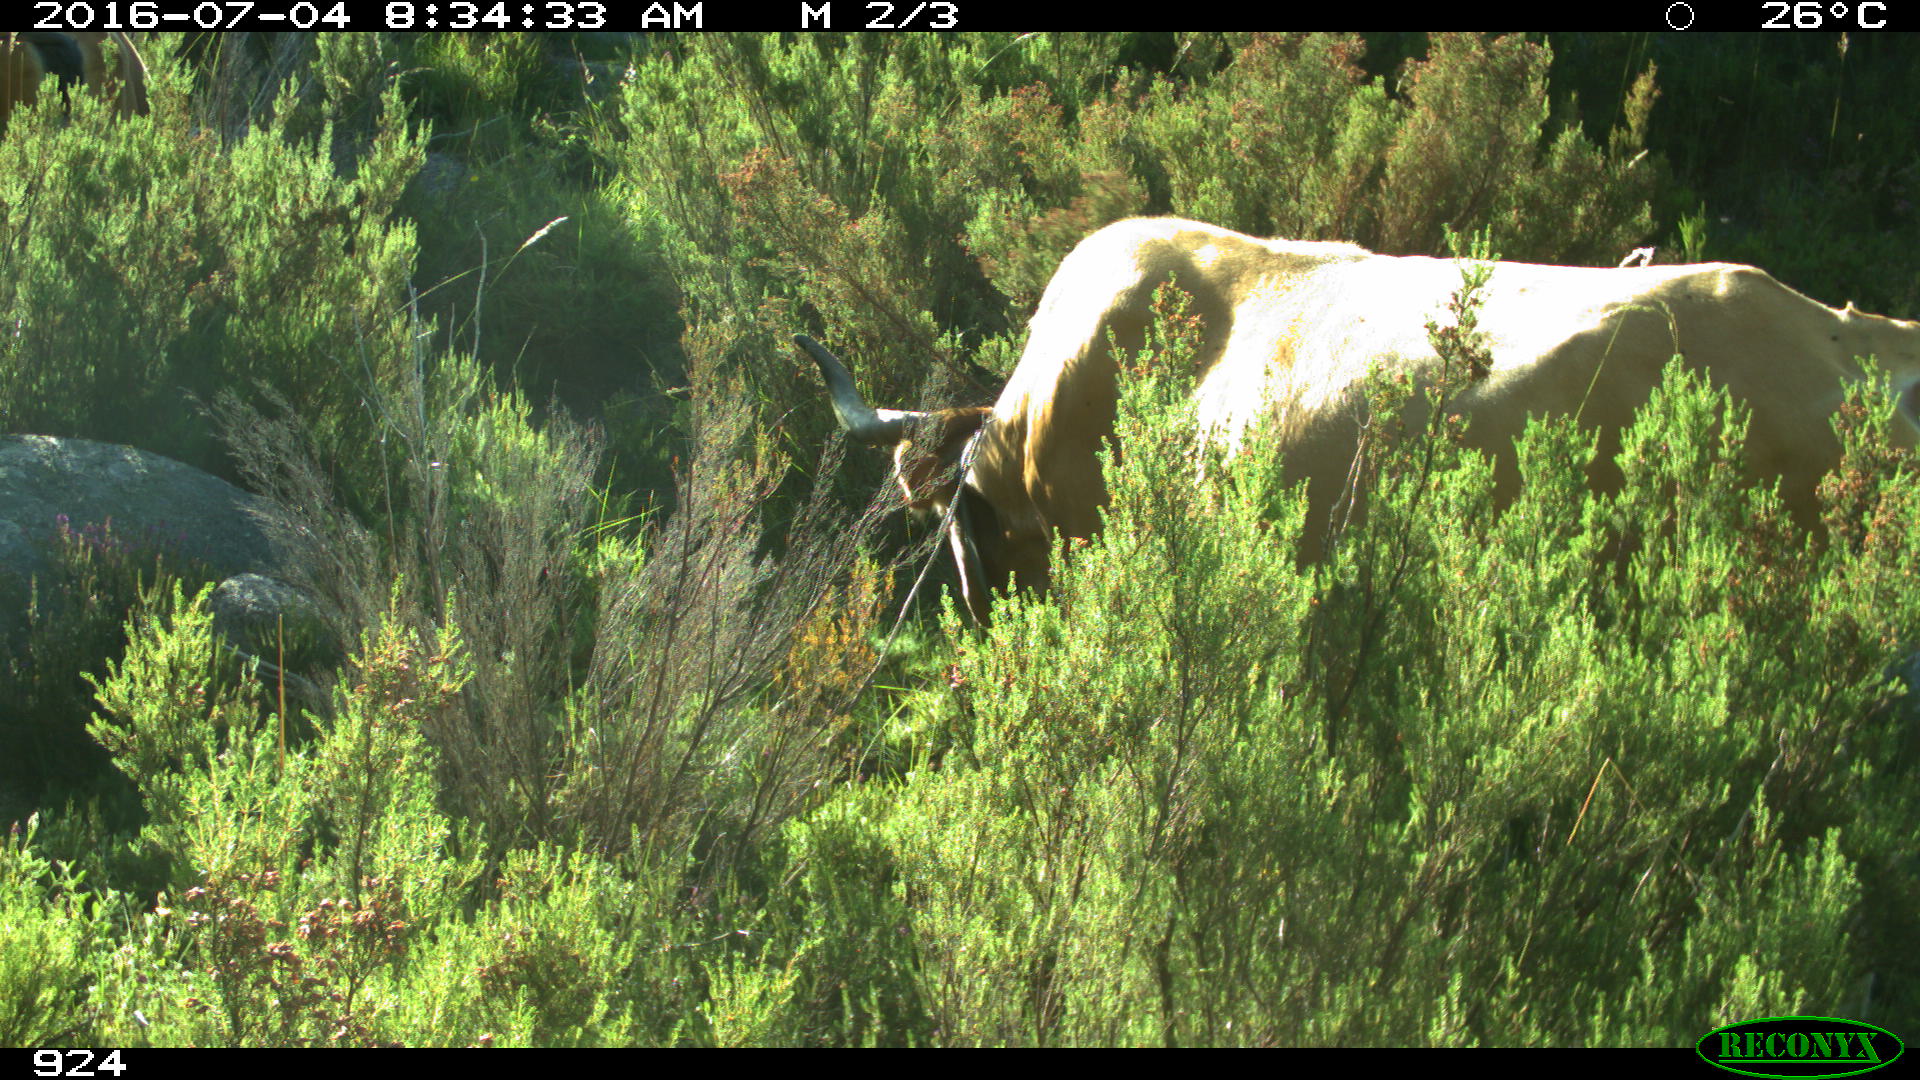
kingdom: Animalia
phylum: Chordata
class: Mammalia
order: Artiodactyla
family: Bovidae
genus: Bos
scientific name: Bos taurus
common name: Domesticated cattle
